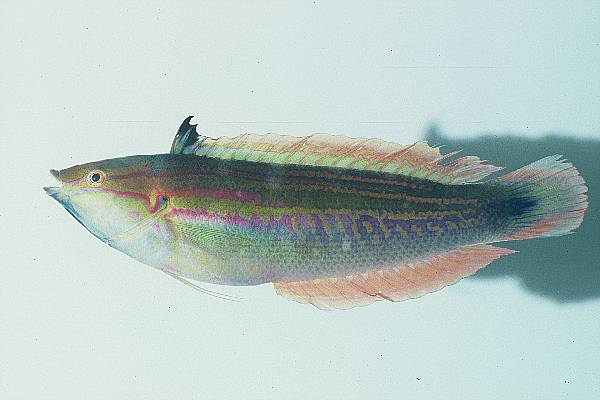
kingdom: Animalia
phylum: Chordata
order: Perciformes
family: Labridae
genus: Coris
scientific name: Coris caudimacula
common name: Spottail coris
